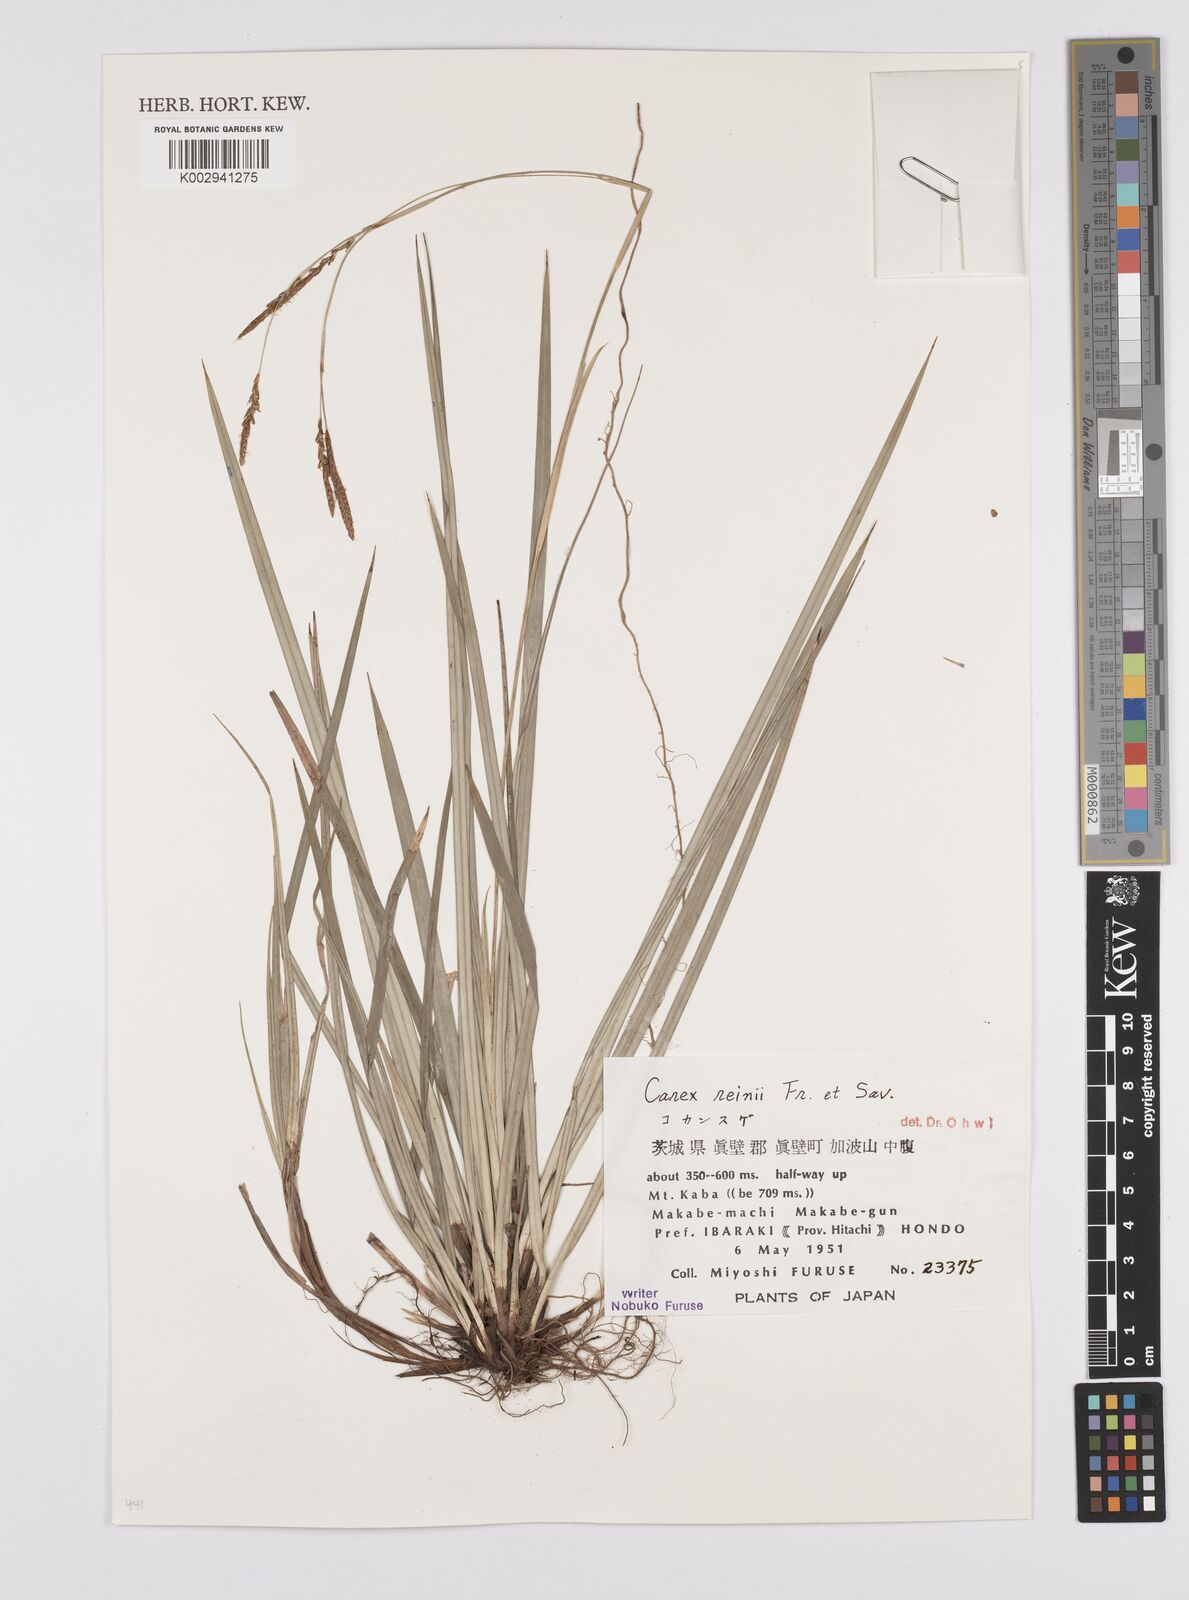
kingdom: Plantae
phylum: Tracheophyta
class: Liliopsida
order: Poales
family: Cyperaceae
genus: Carex
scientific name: Carex reinii
